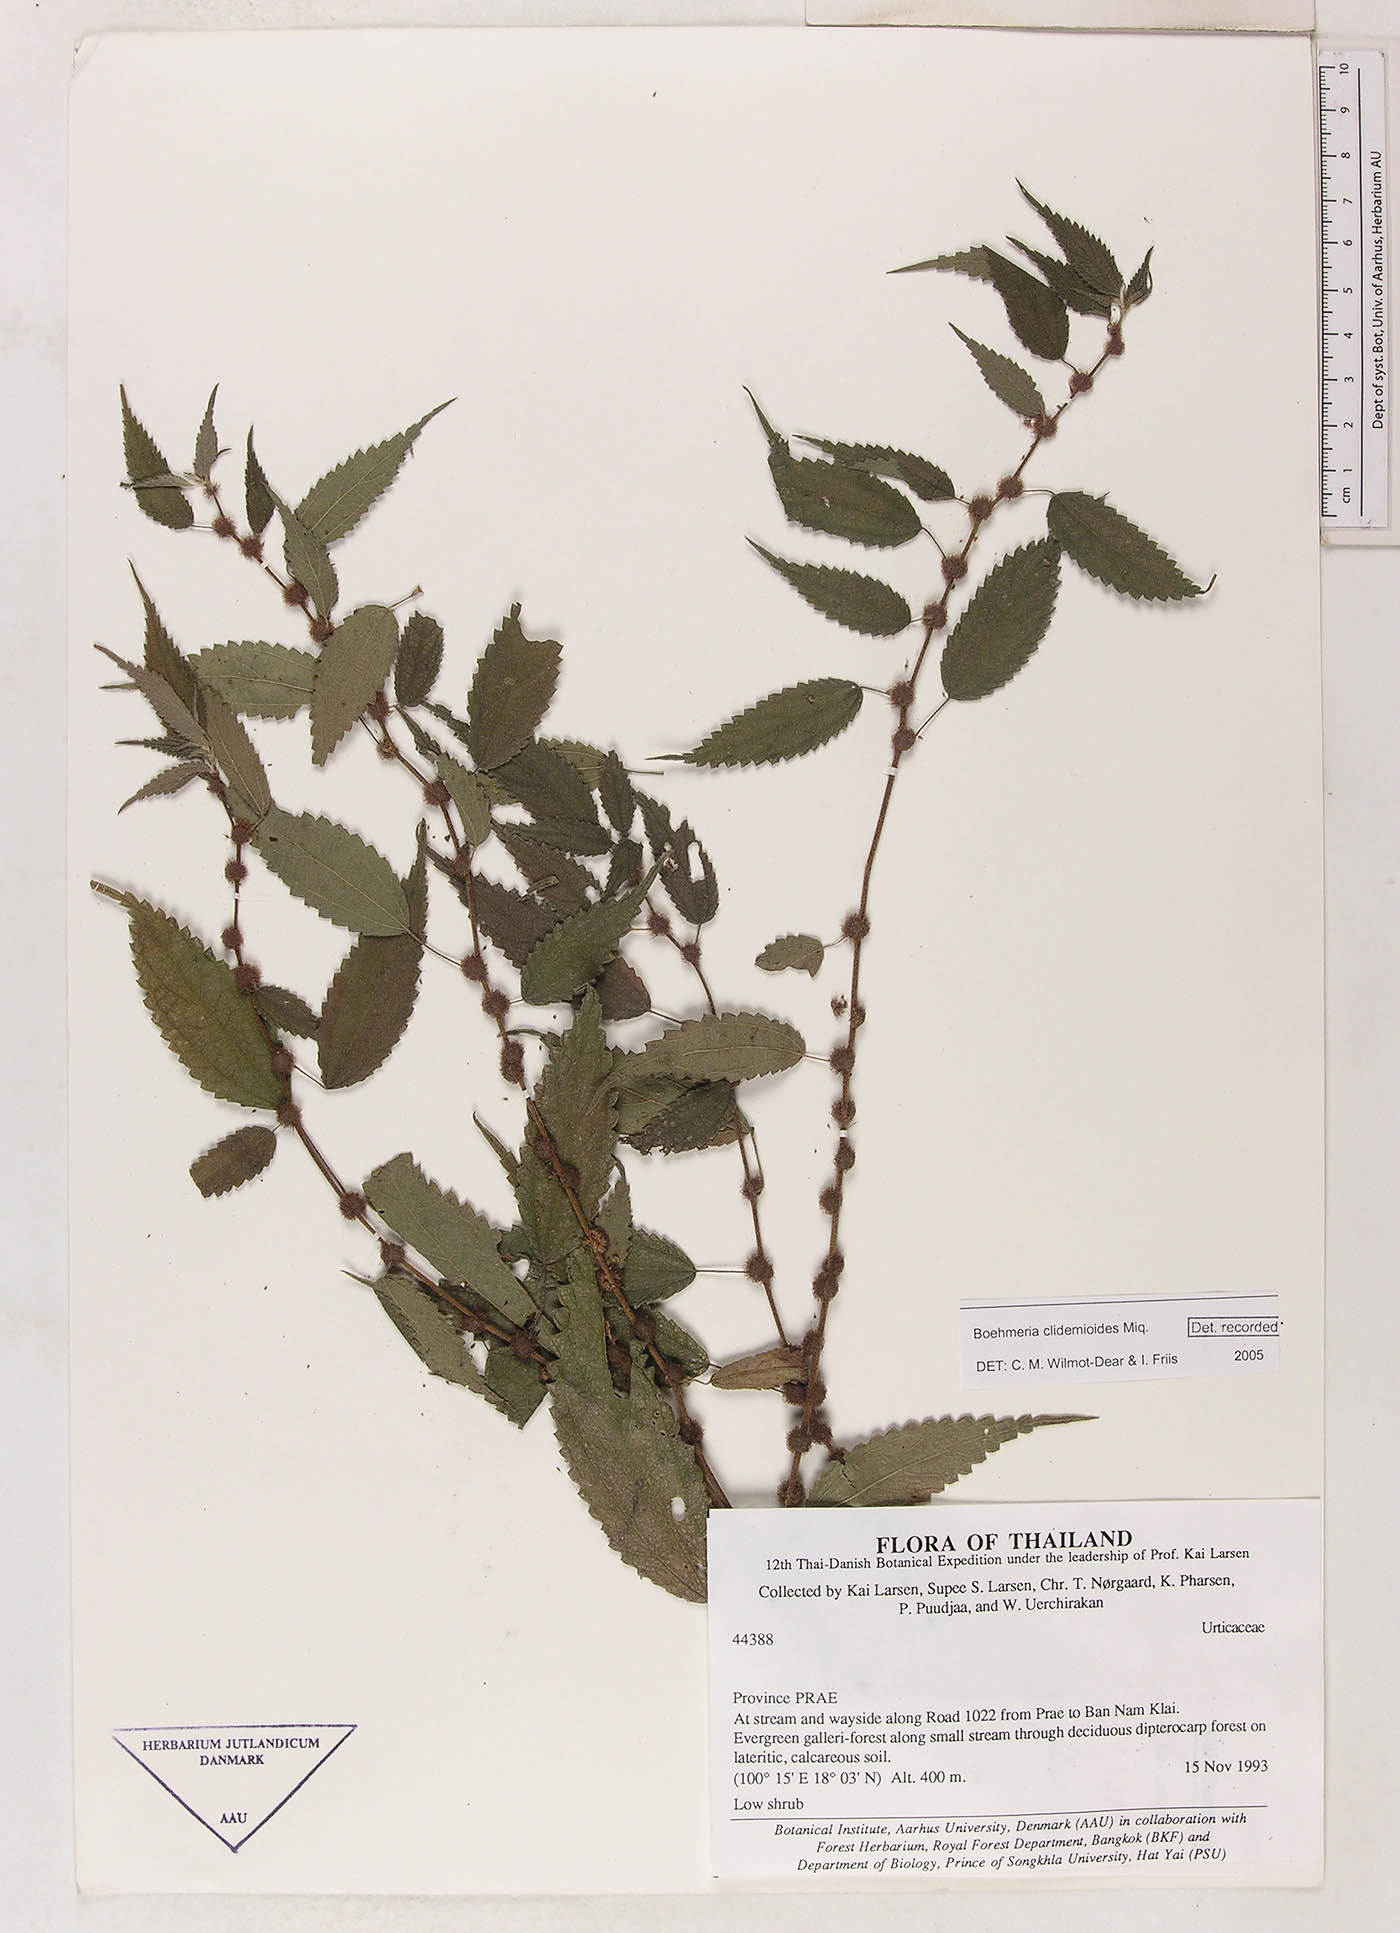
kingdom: Plantae
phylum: Tracheophyta
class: Magnoliopsida
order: Rosales
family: Urticaceae
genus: Boehmeria
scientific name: Boehmeria clidemioides
